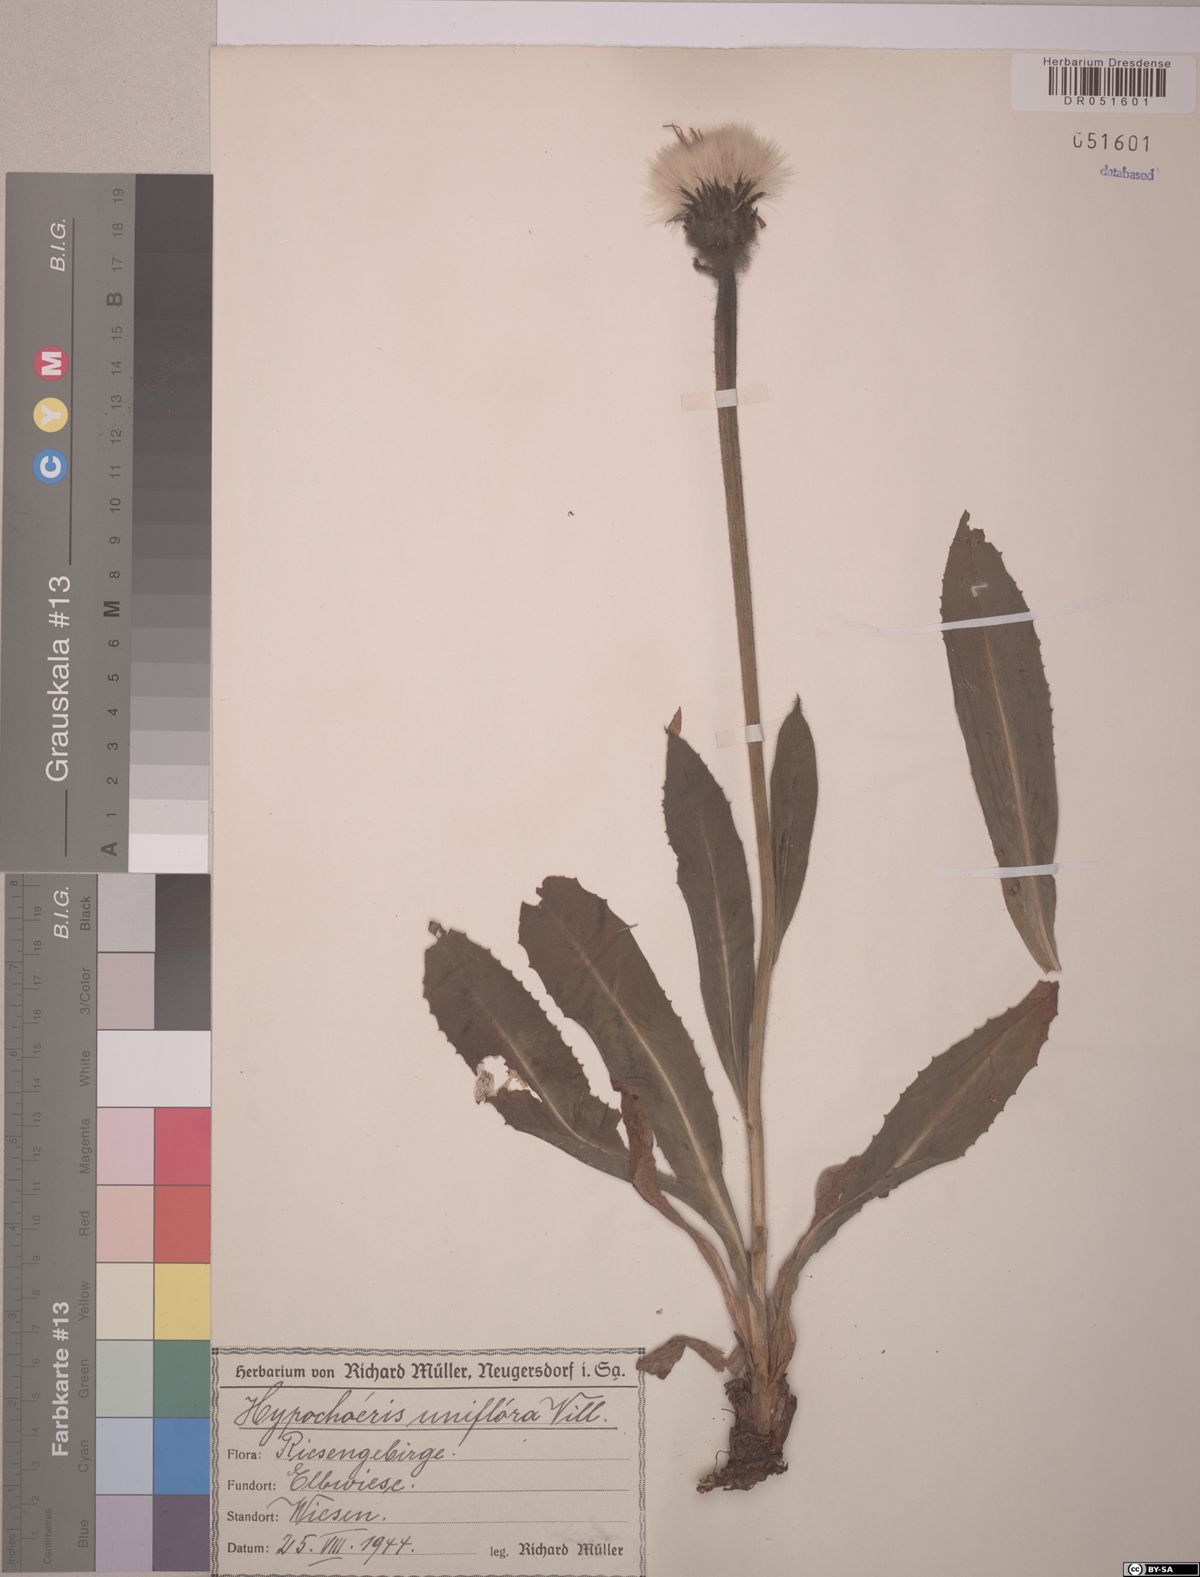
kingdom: Plantae
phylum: Tracheophyta
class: Magnoliopsida
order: Asterales
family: Asteraceae
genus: Trommsdorffia
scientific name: Trommsdorffia uniflora
